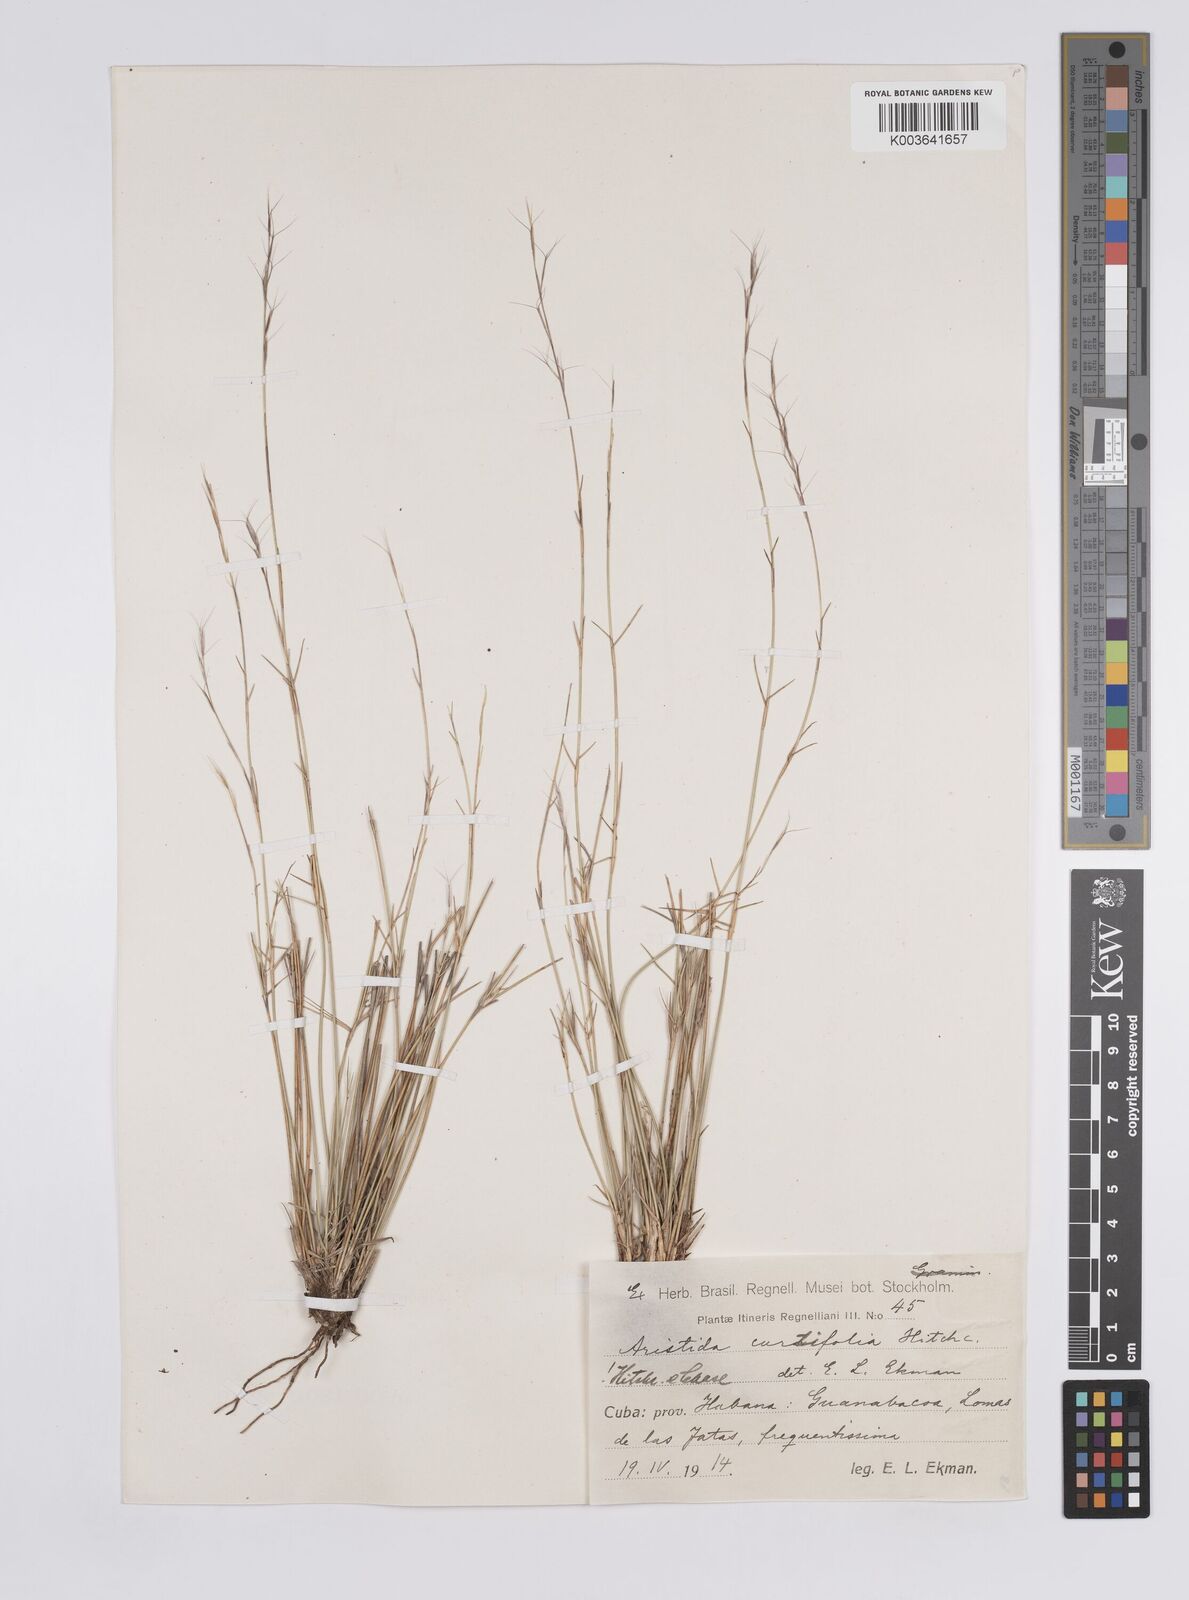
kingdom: Plantae
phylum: Tracheophyta
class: Liliopsida
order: Poales
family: Poaceae
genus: Aristida
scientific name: Aristida curtifolia
